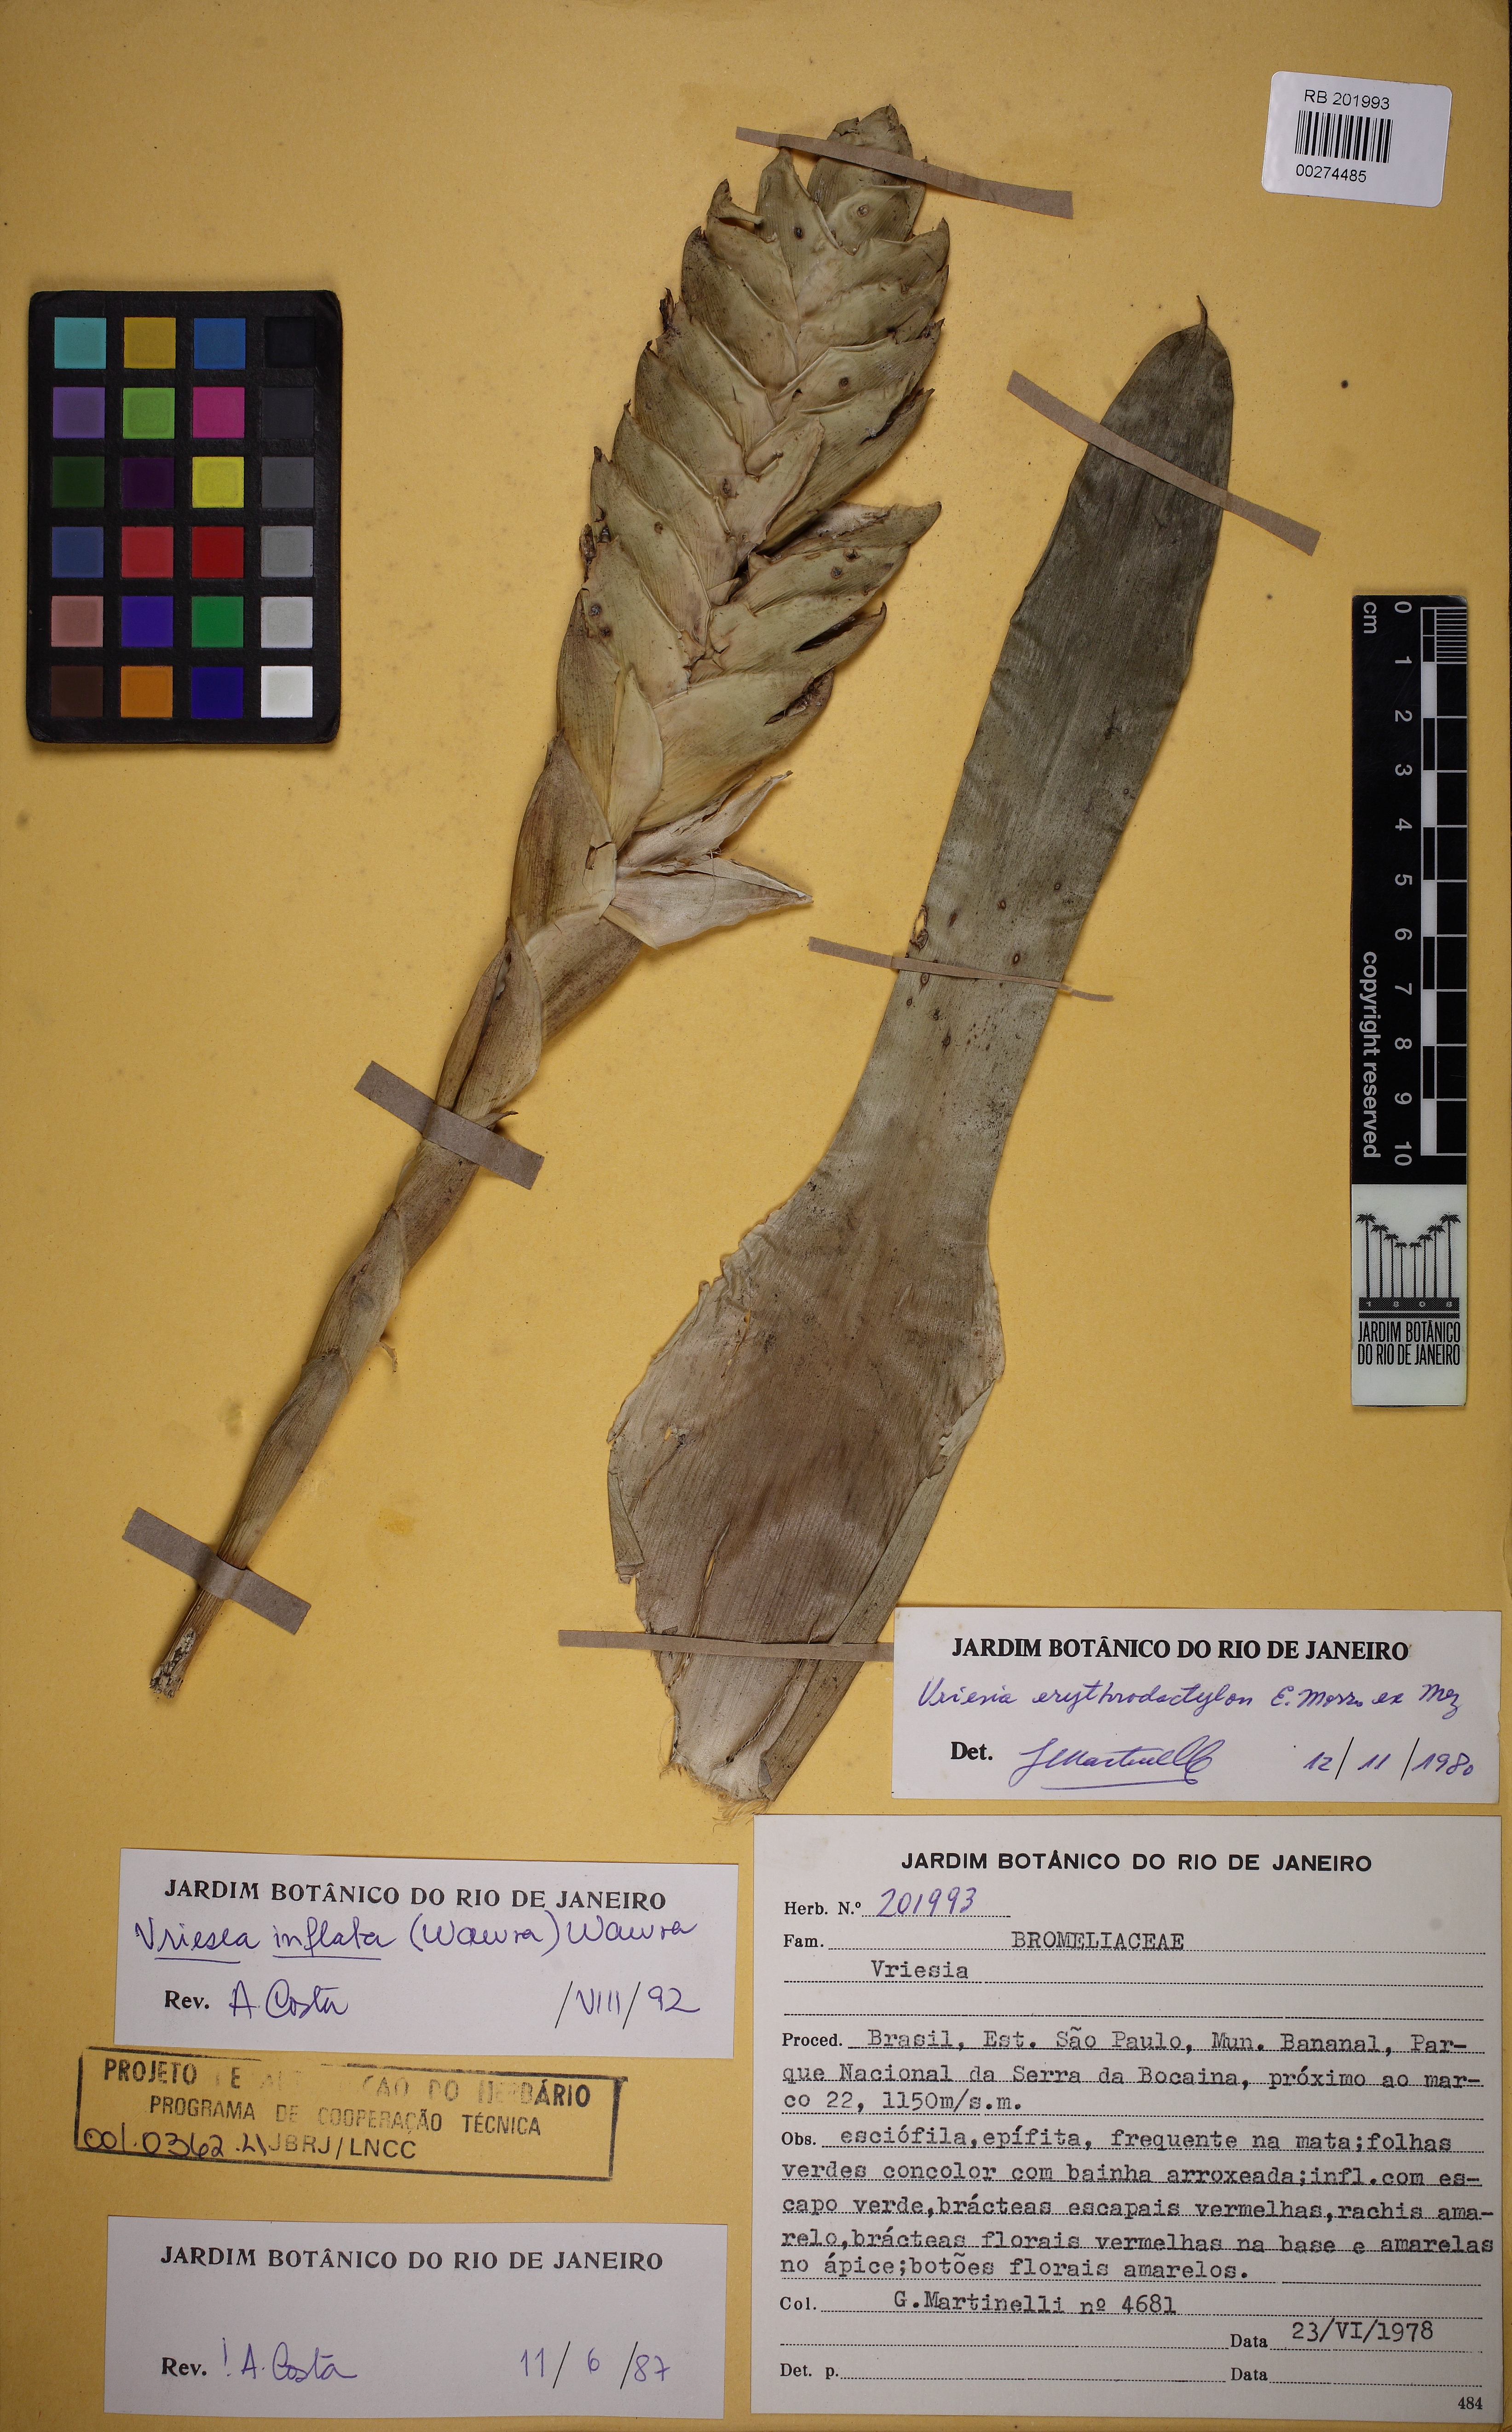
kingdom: Plantae
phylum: Tracheophyta
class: Liliopsida
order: Poales
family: Bromeliaceae
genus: Vriesea
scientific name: Vriesea inflata
